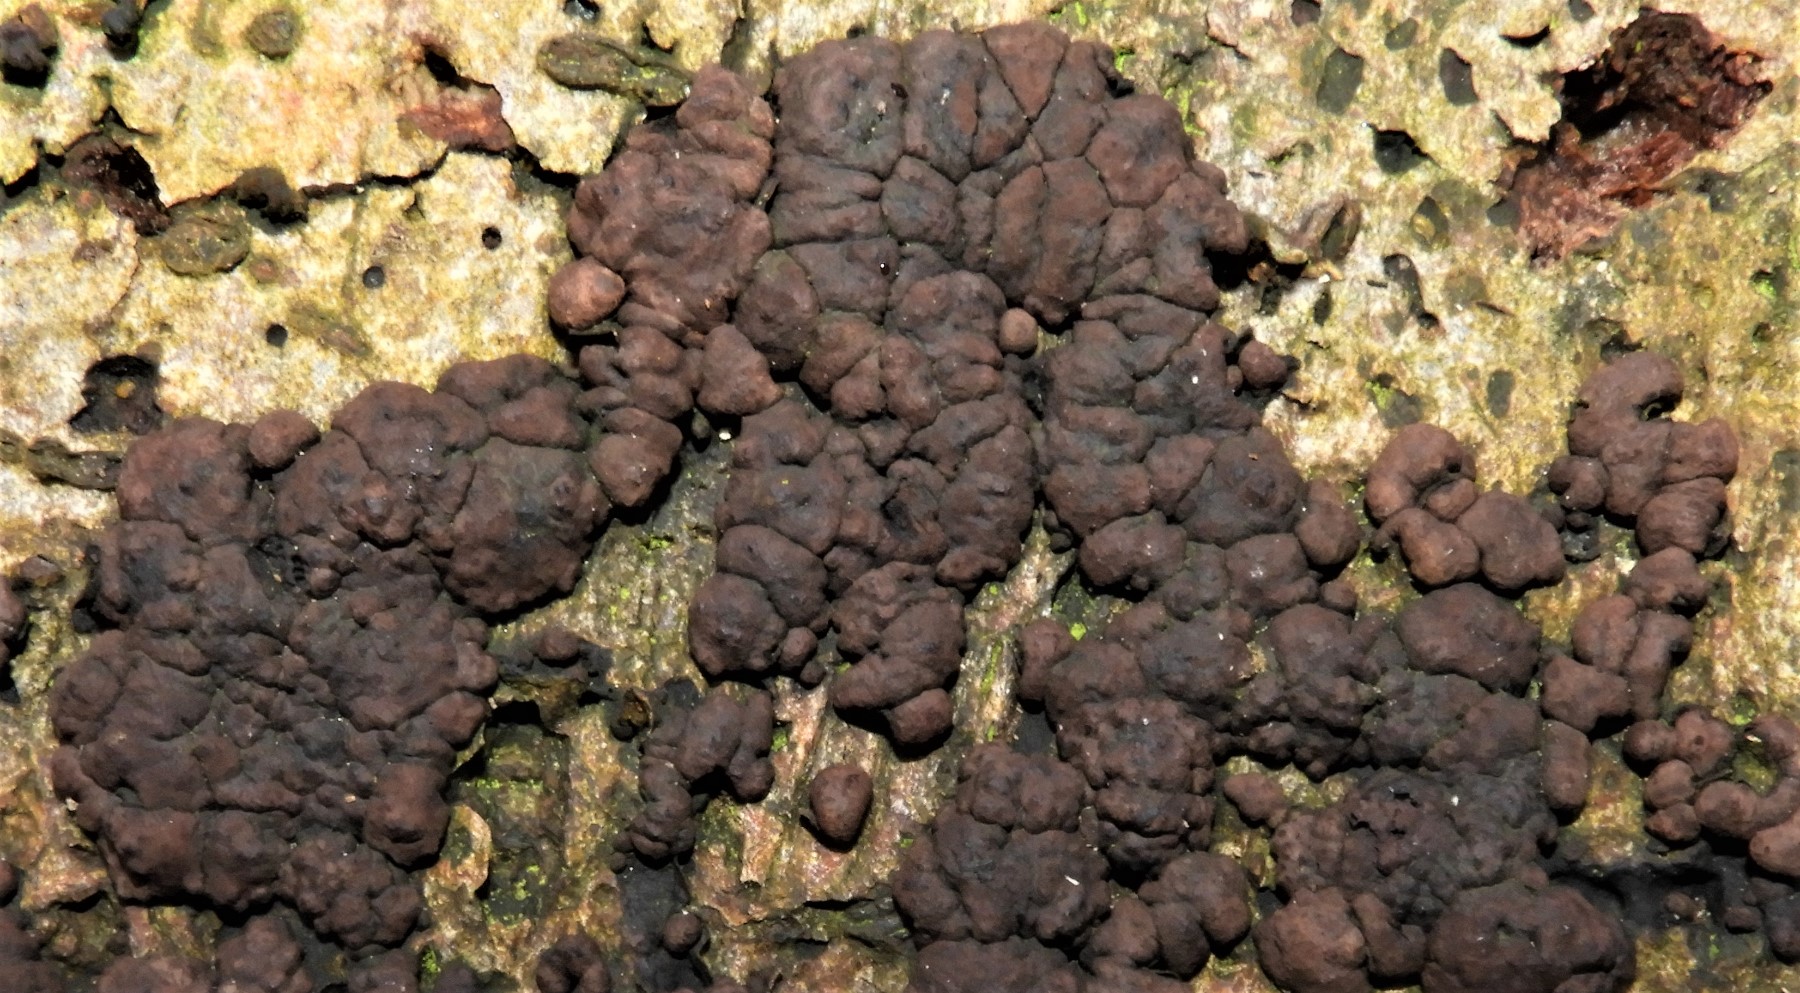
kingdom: Fungi
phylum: Ascomycota
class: Sordariomycetes
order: Xylariales
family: Hypoxylaceae
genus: Jackrogersella
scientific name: Jackrogersella cohaerens
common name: sammenflydende kulbær
